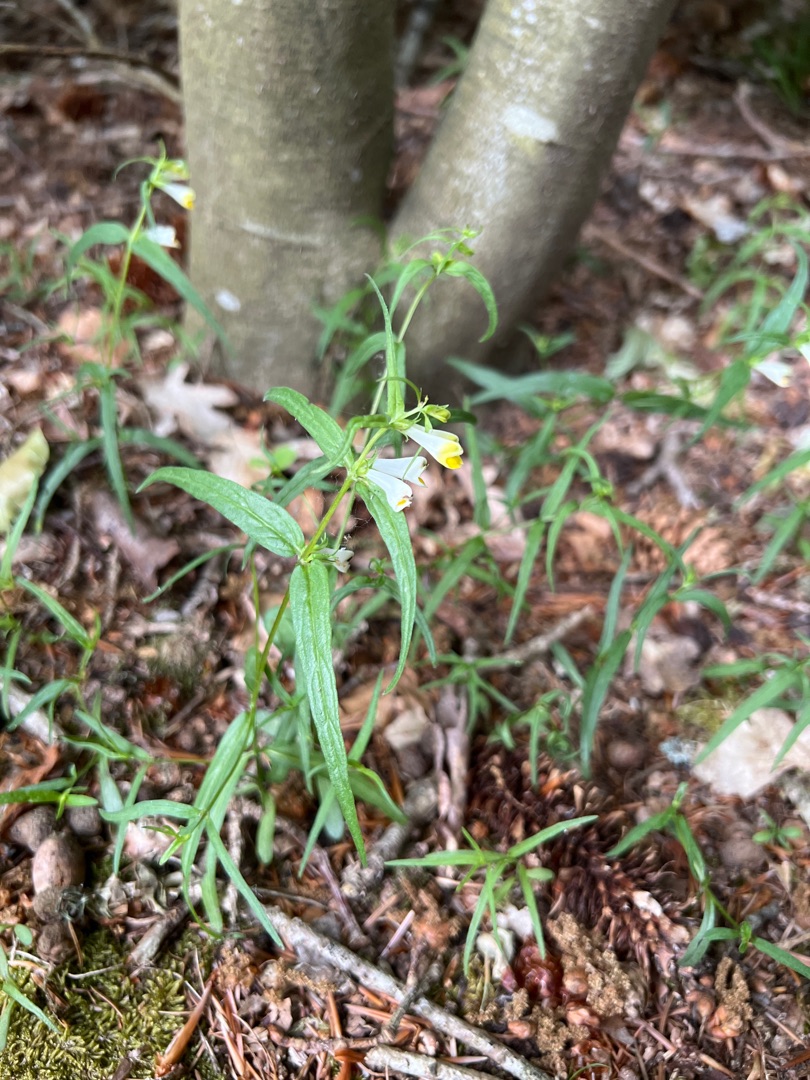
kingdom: Plantae
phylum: Tracheophyta
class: Magnoliopsida
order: Lamiales
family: Orobanchaceae
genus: Melampyrum
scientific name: Melampyrum pratense
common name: Almindelig kohvede
